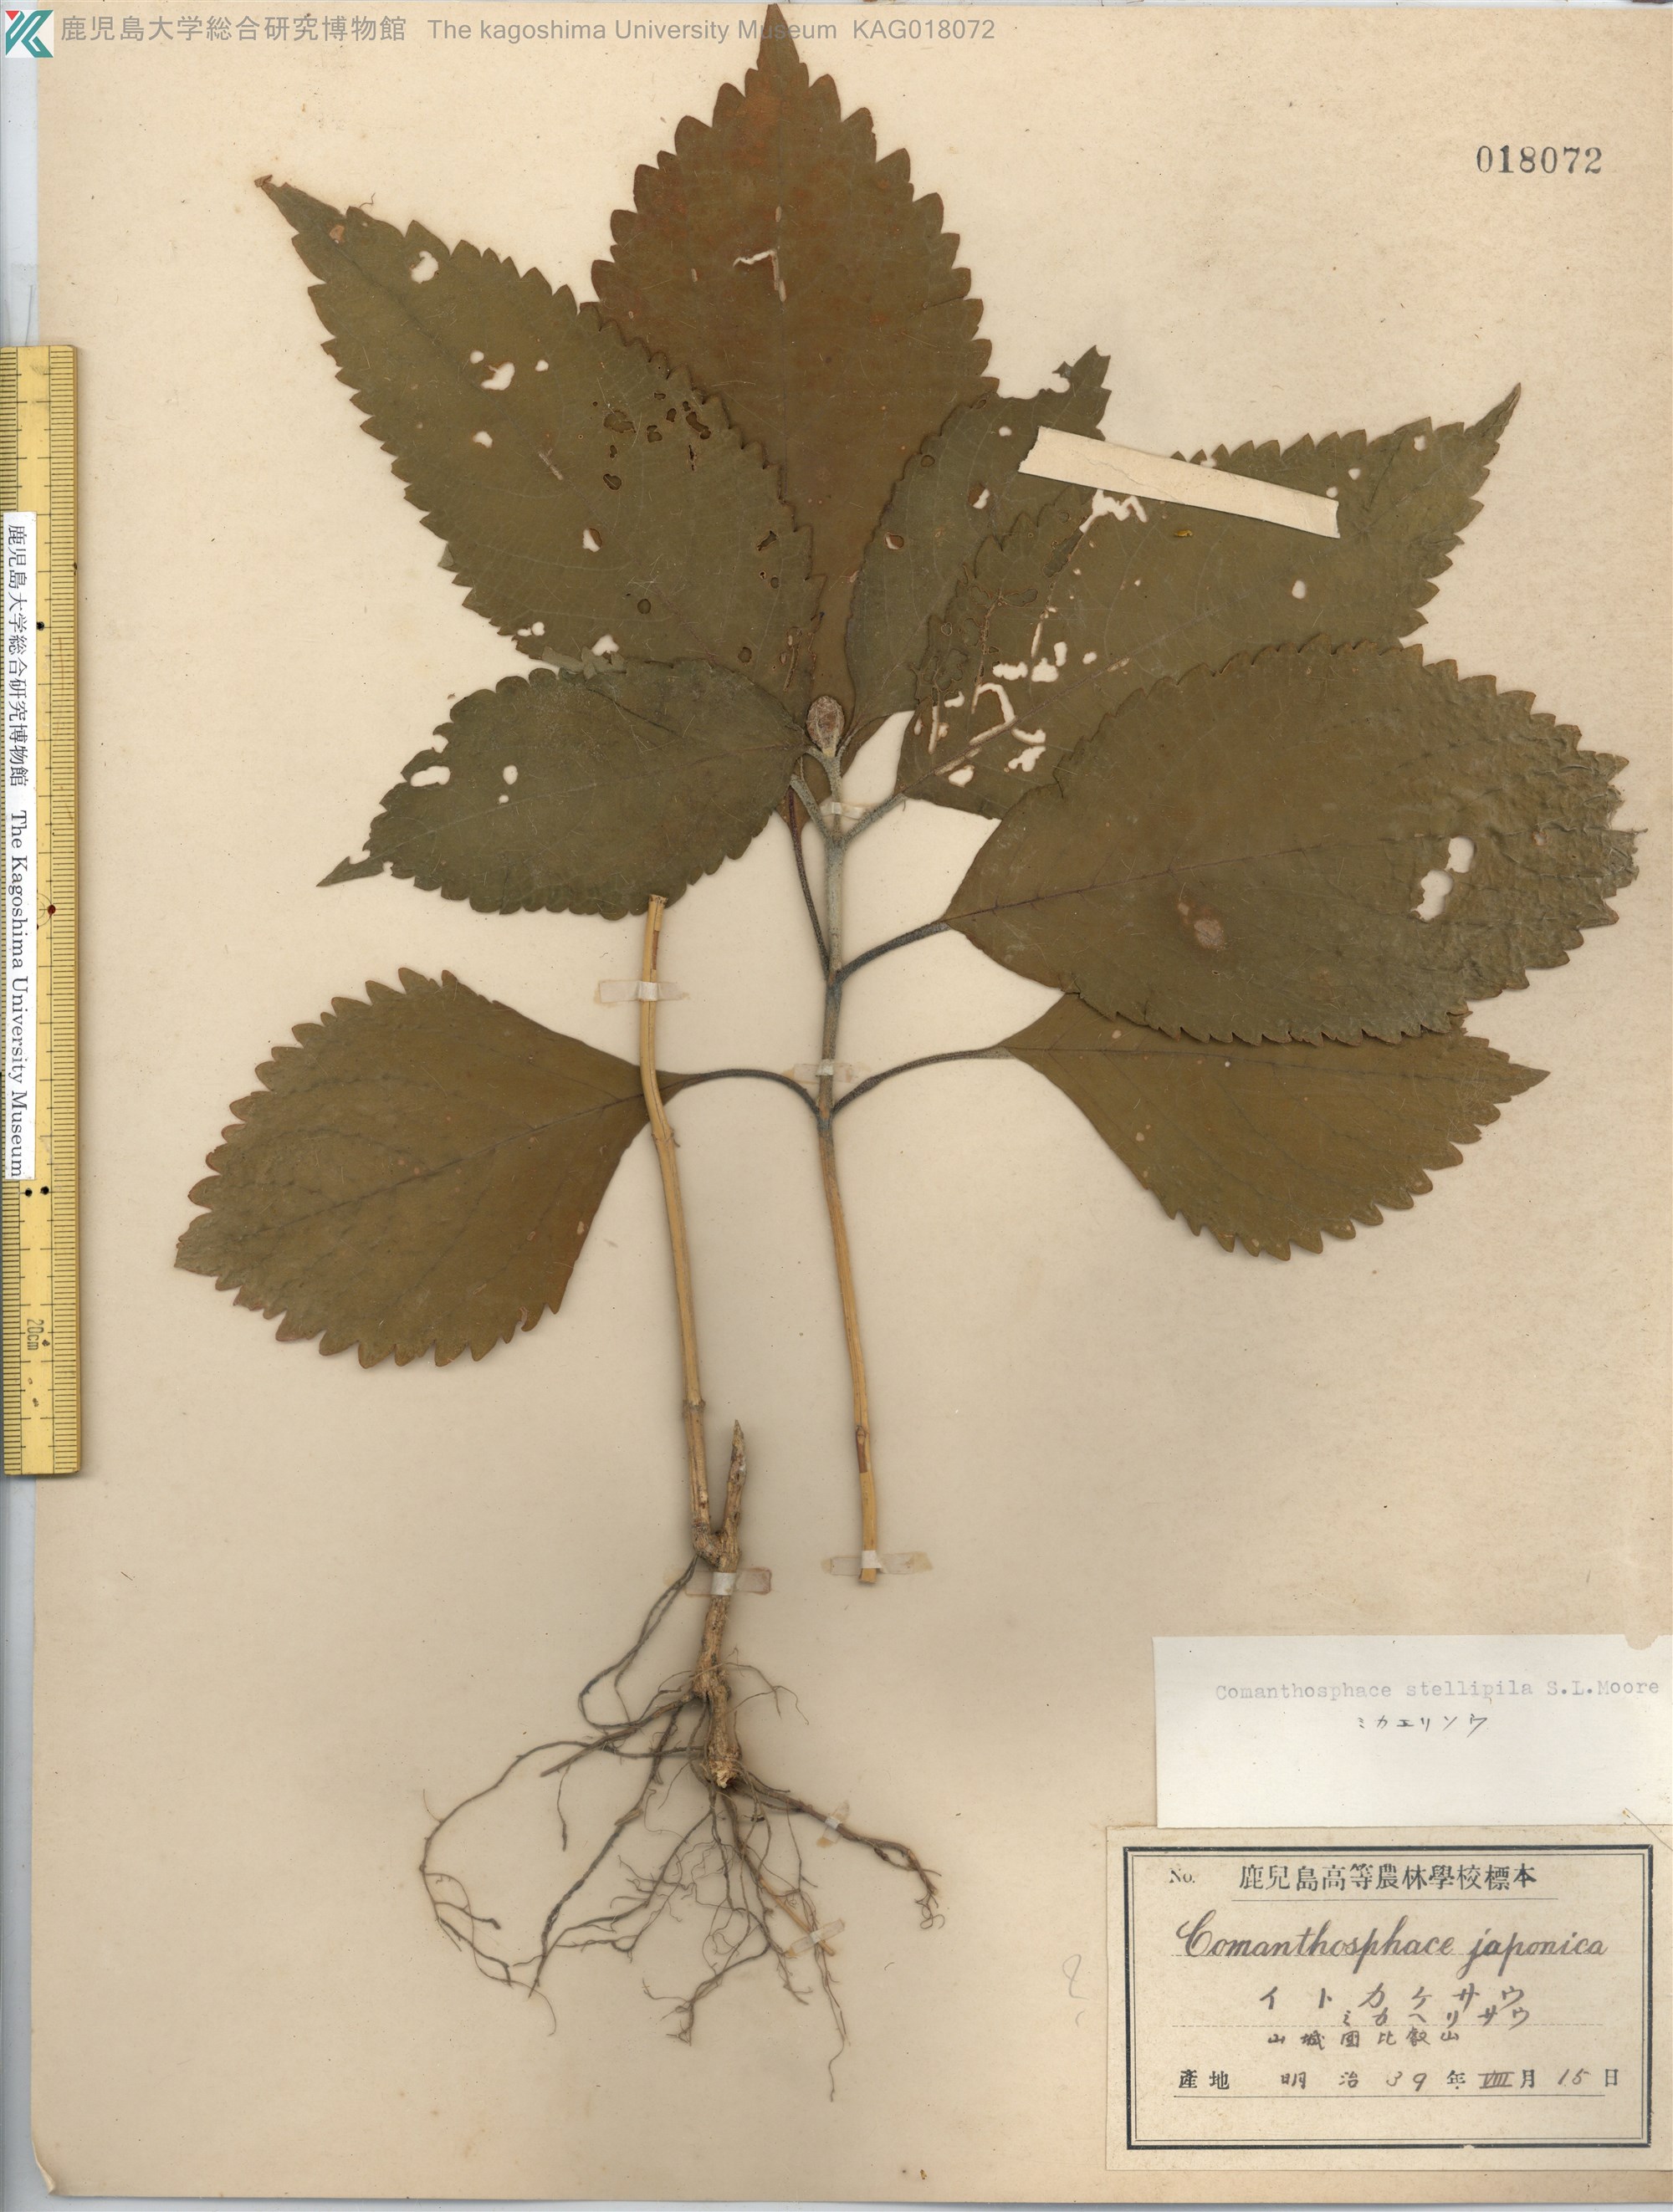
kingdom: Plantae
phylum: Tracheophyta
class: Magnoliopsida
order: Lamiales
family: Lamiaceae
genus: Comanthosphace
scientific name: Comanthosphace stellipila
